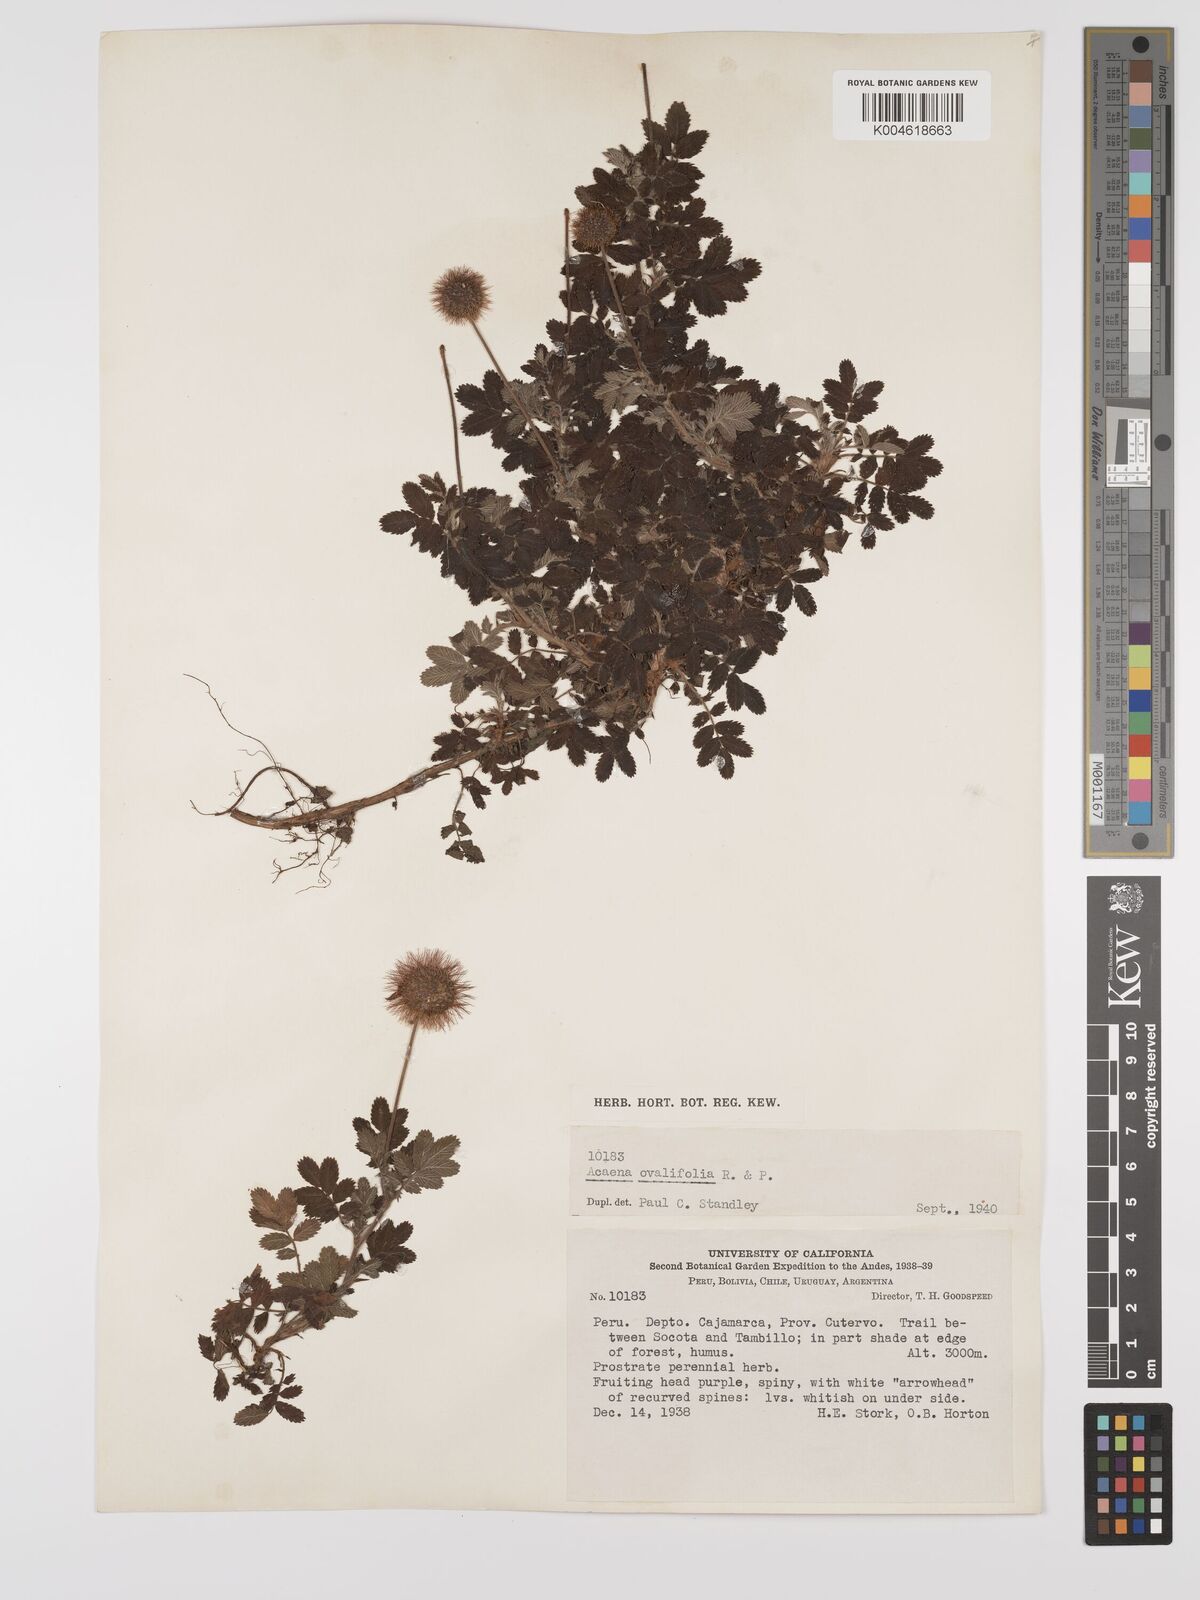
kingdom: Plantae
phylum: Tracheophyta
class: Magnoliopsida
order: Rosales
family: Rosaceae
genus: Acaena
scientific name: Acaena ovalifolia
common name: Two-spined acaena
